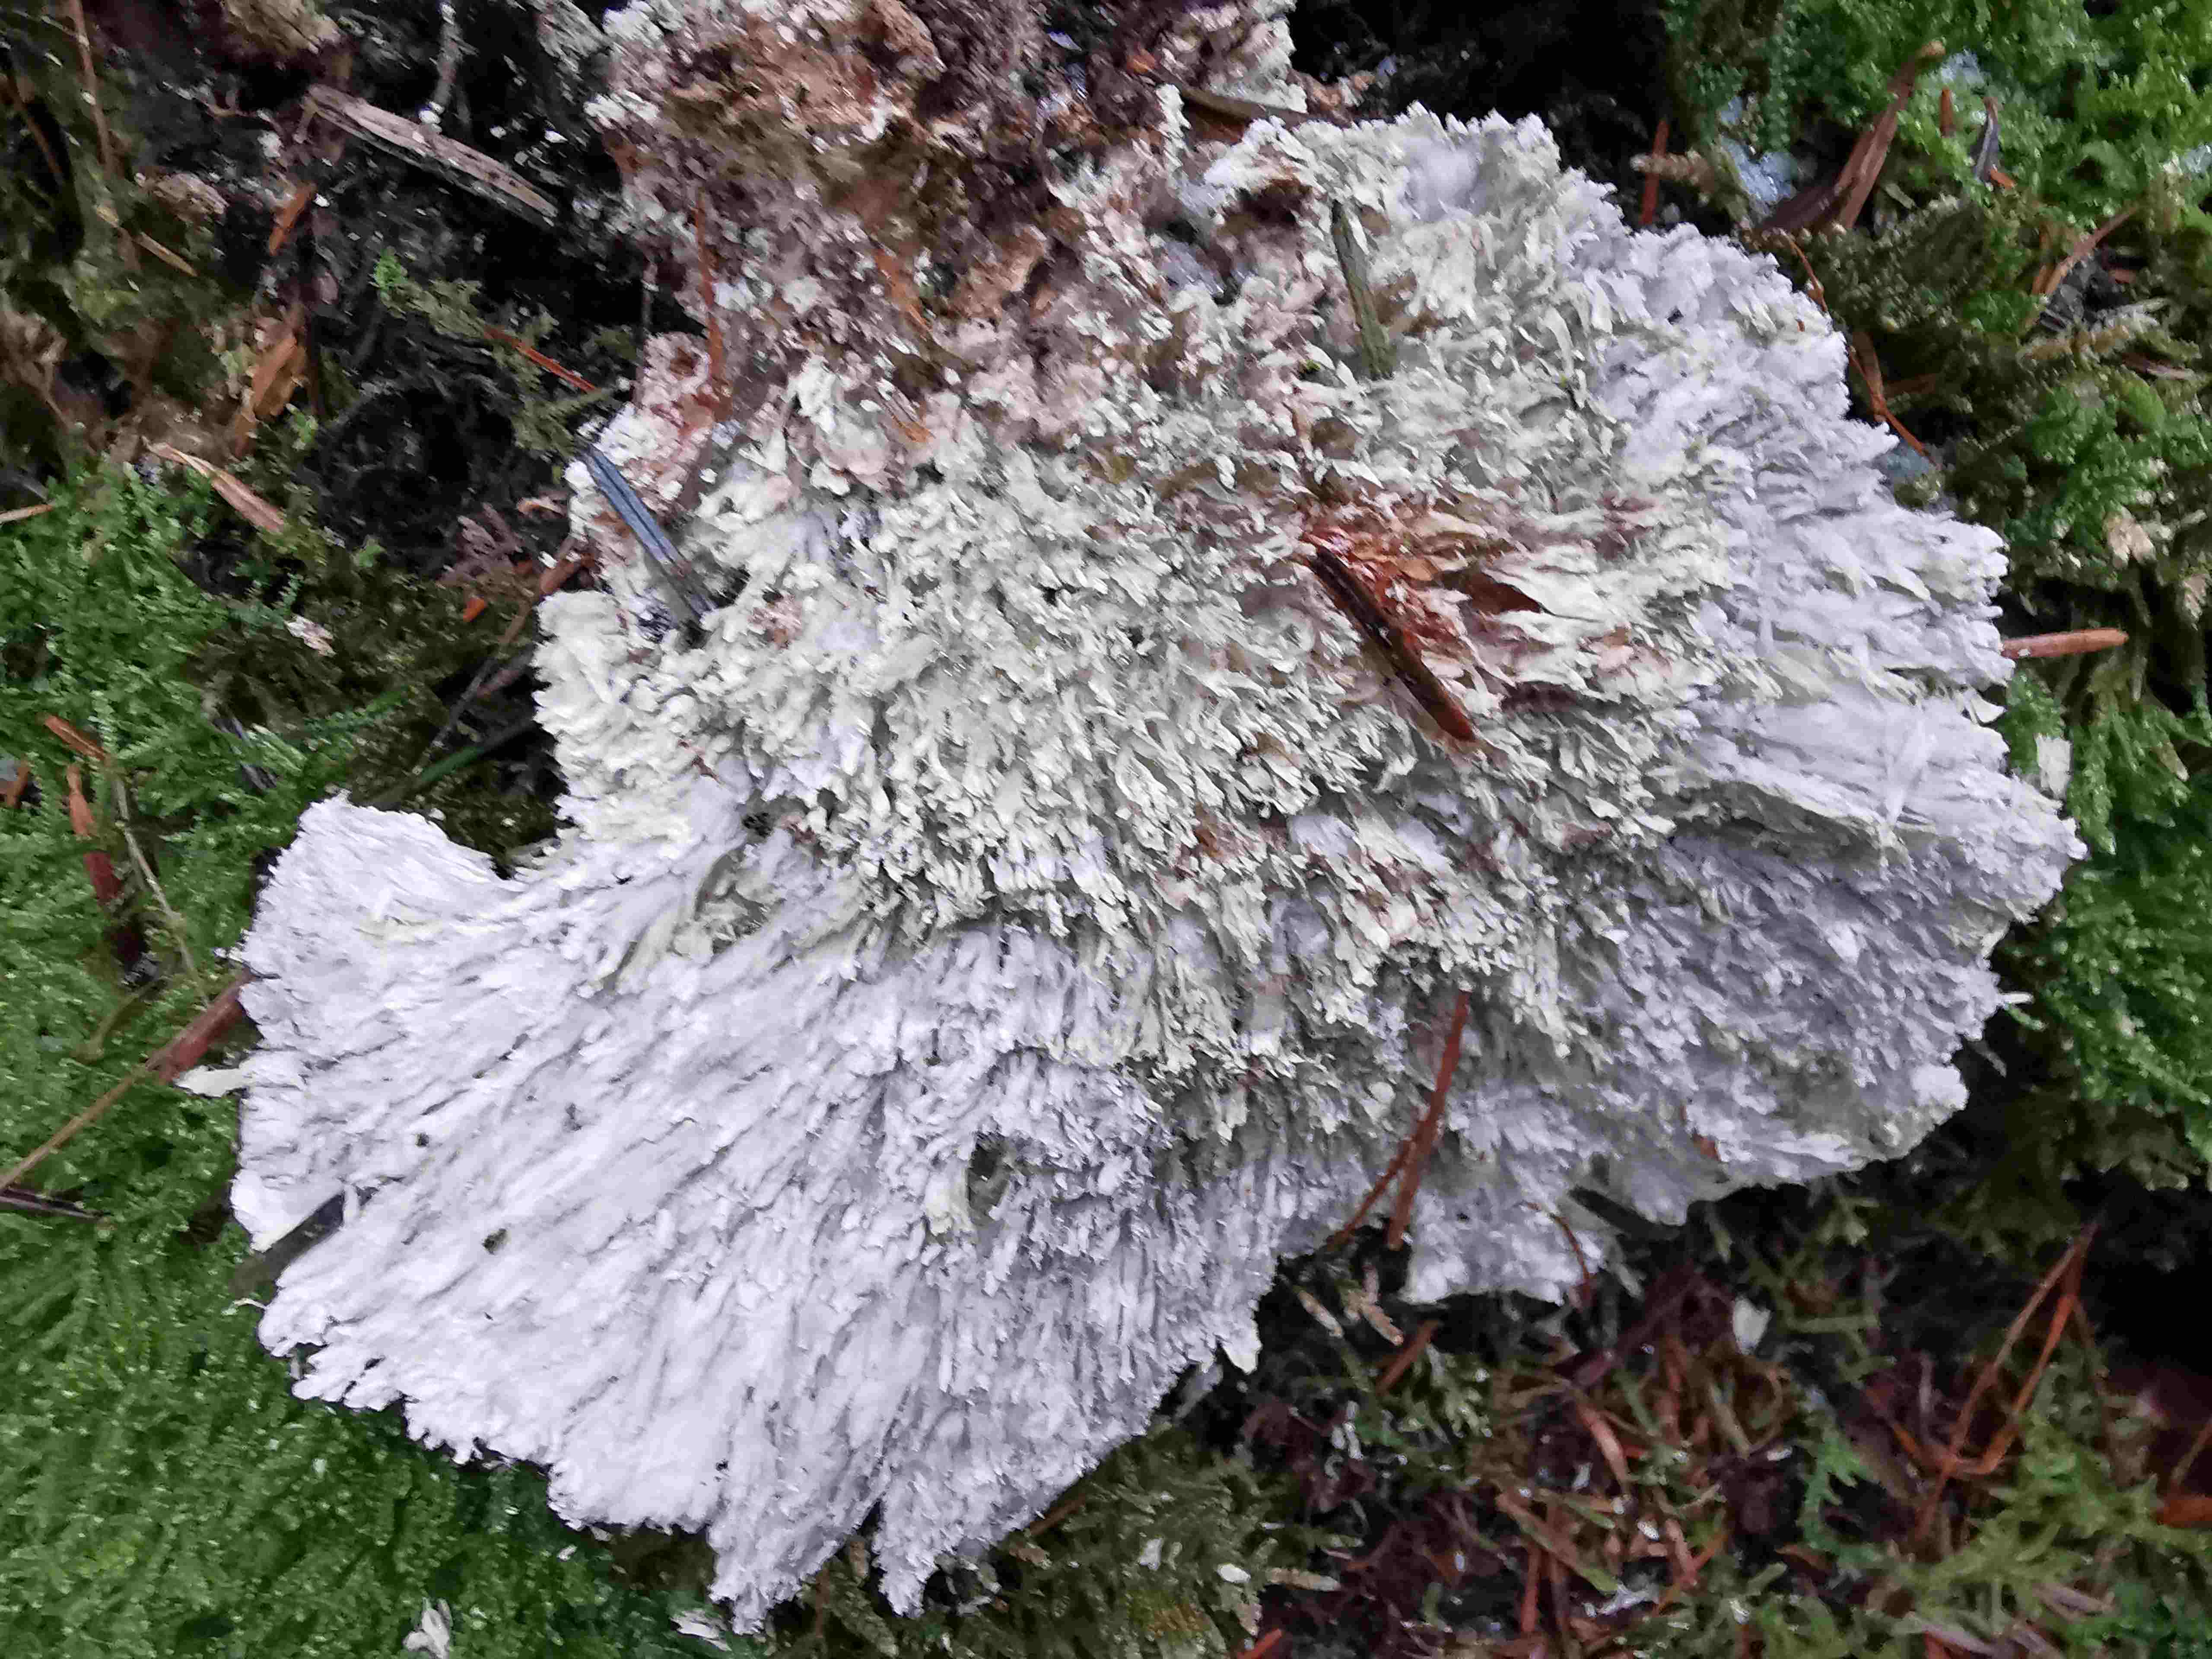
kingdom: Fungi
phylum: Basidiomycota
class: Agaricomycetes
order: Polyporales
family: Fomitopsidaceae
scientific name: Fomitopsidaceae
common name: hovporesvampfamilien
